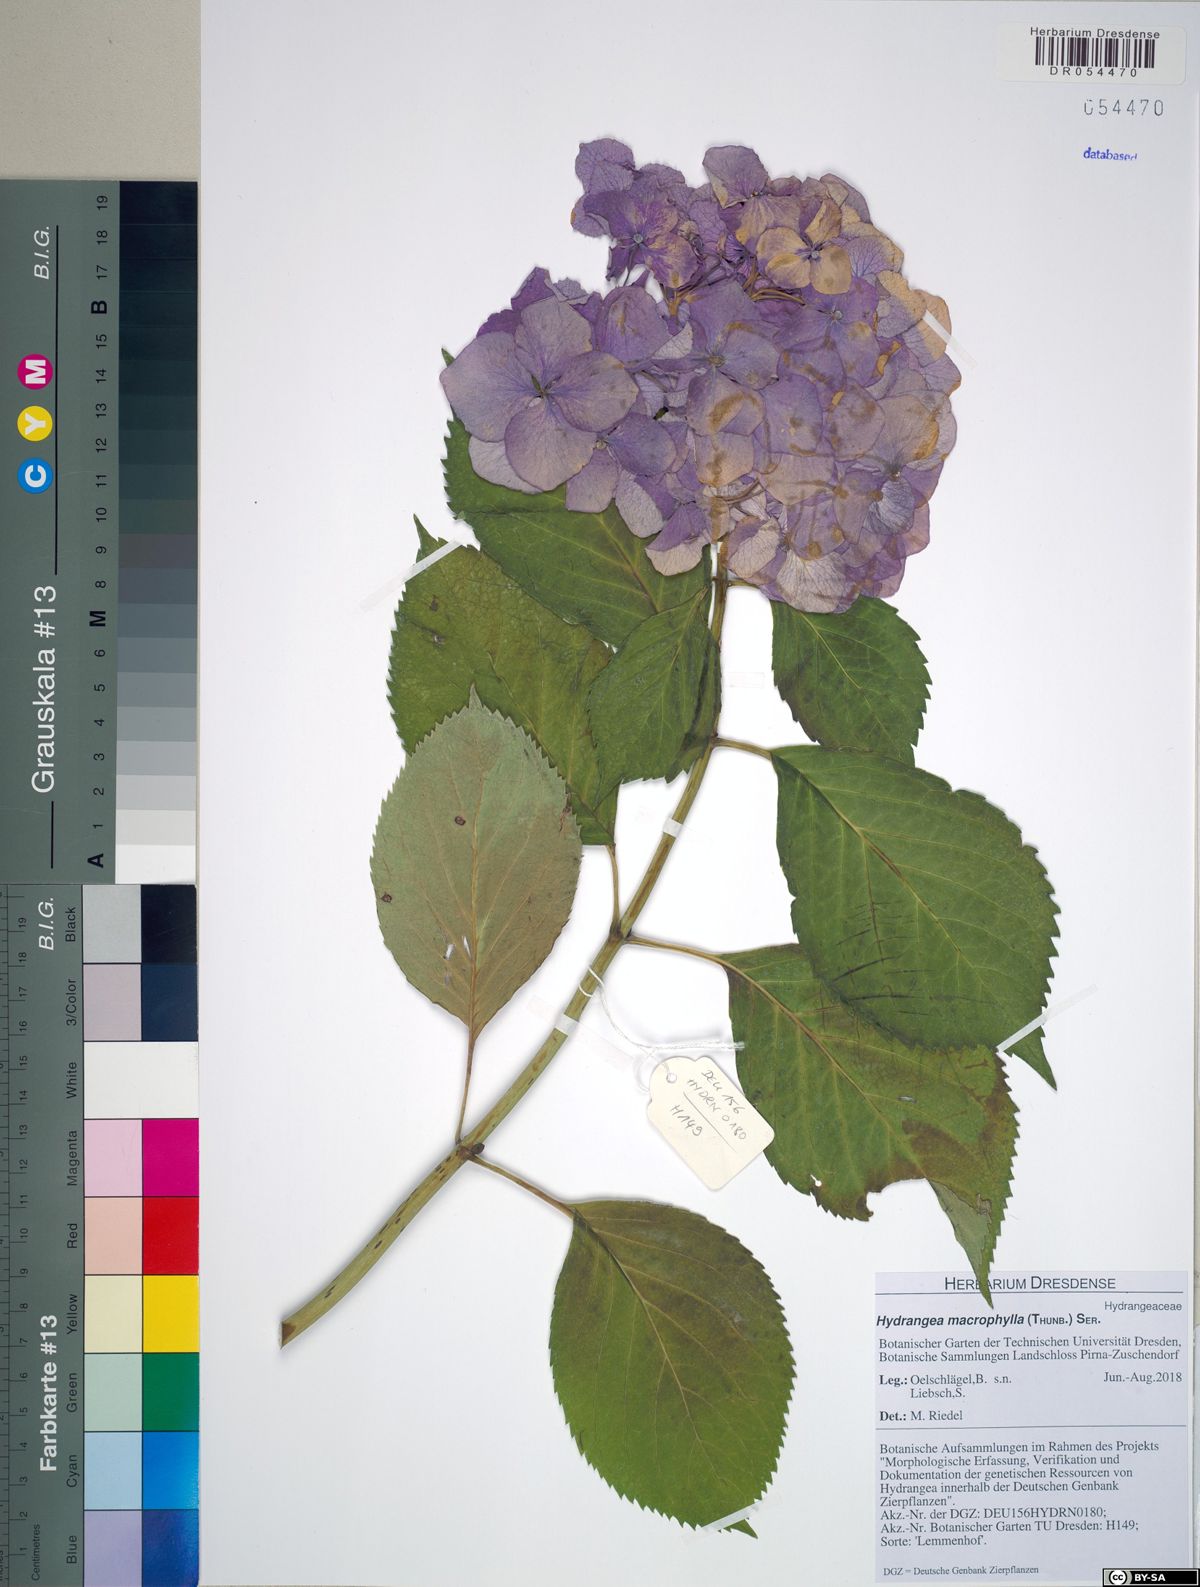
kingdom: Plantae
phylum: Tracheophyta
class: Magnoliopsida
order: Cornales
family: Hydrangeaceae
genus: Hydrangea
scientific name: Hydrangea macrophylla
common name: Hydrangea
